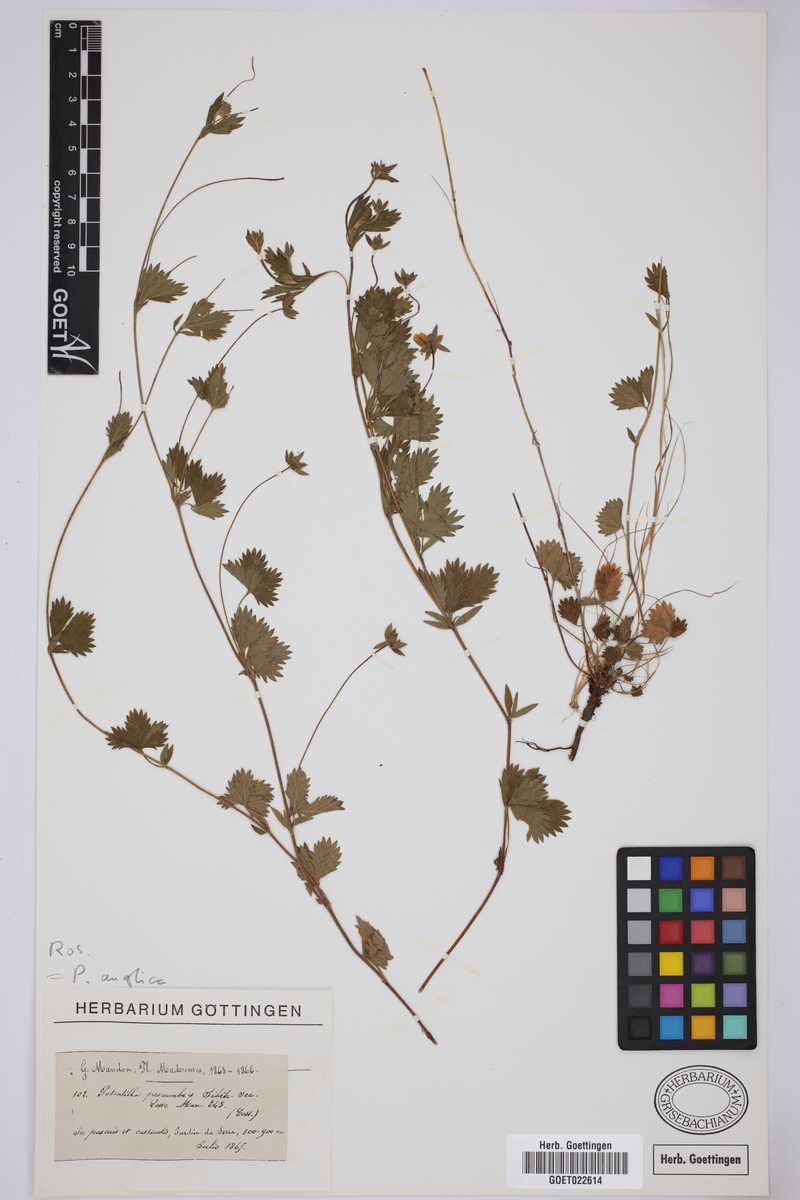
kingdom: Plantae
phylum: Tracheophyta
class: Magnoliopsida
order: Rosales
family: Rosaceae
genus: Potentilla
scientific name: Potentilla anglica
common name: Trailing tormentil
